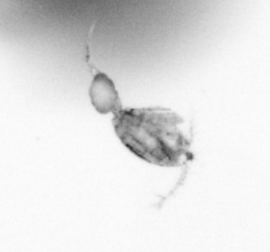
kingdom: Animalia
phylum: Arthropoda
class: Copepoda
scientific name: Copepoda
